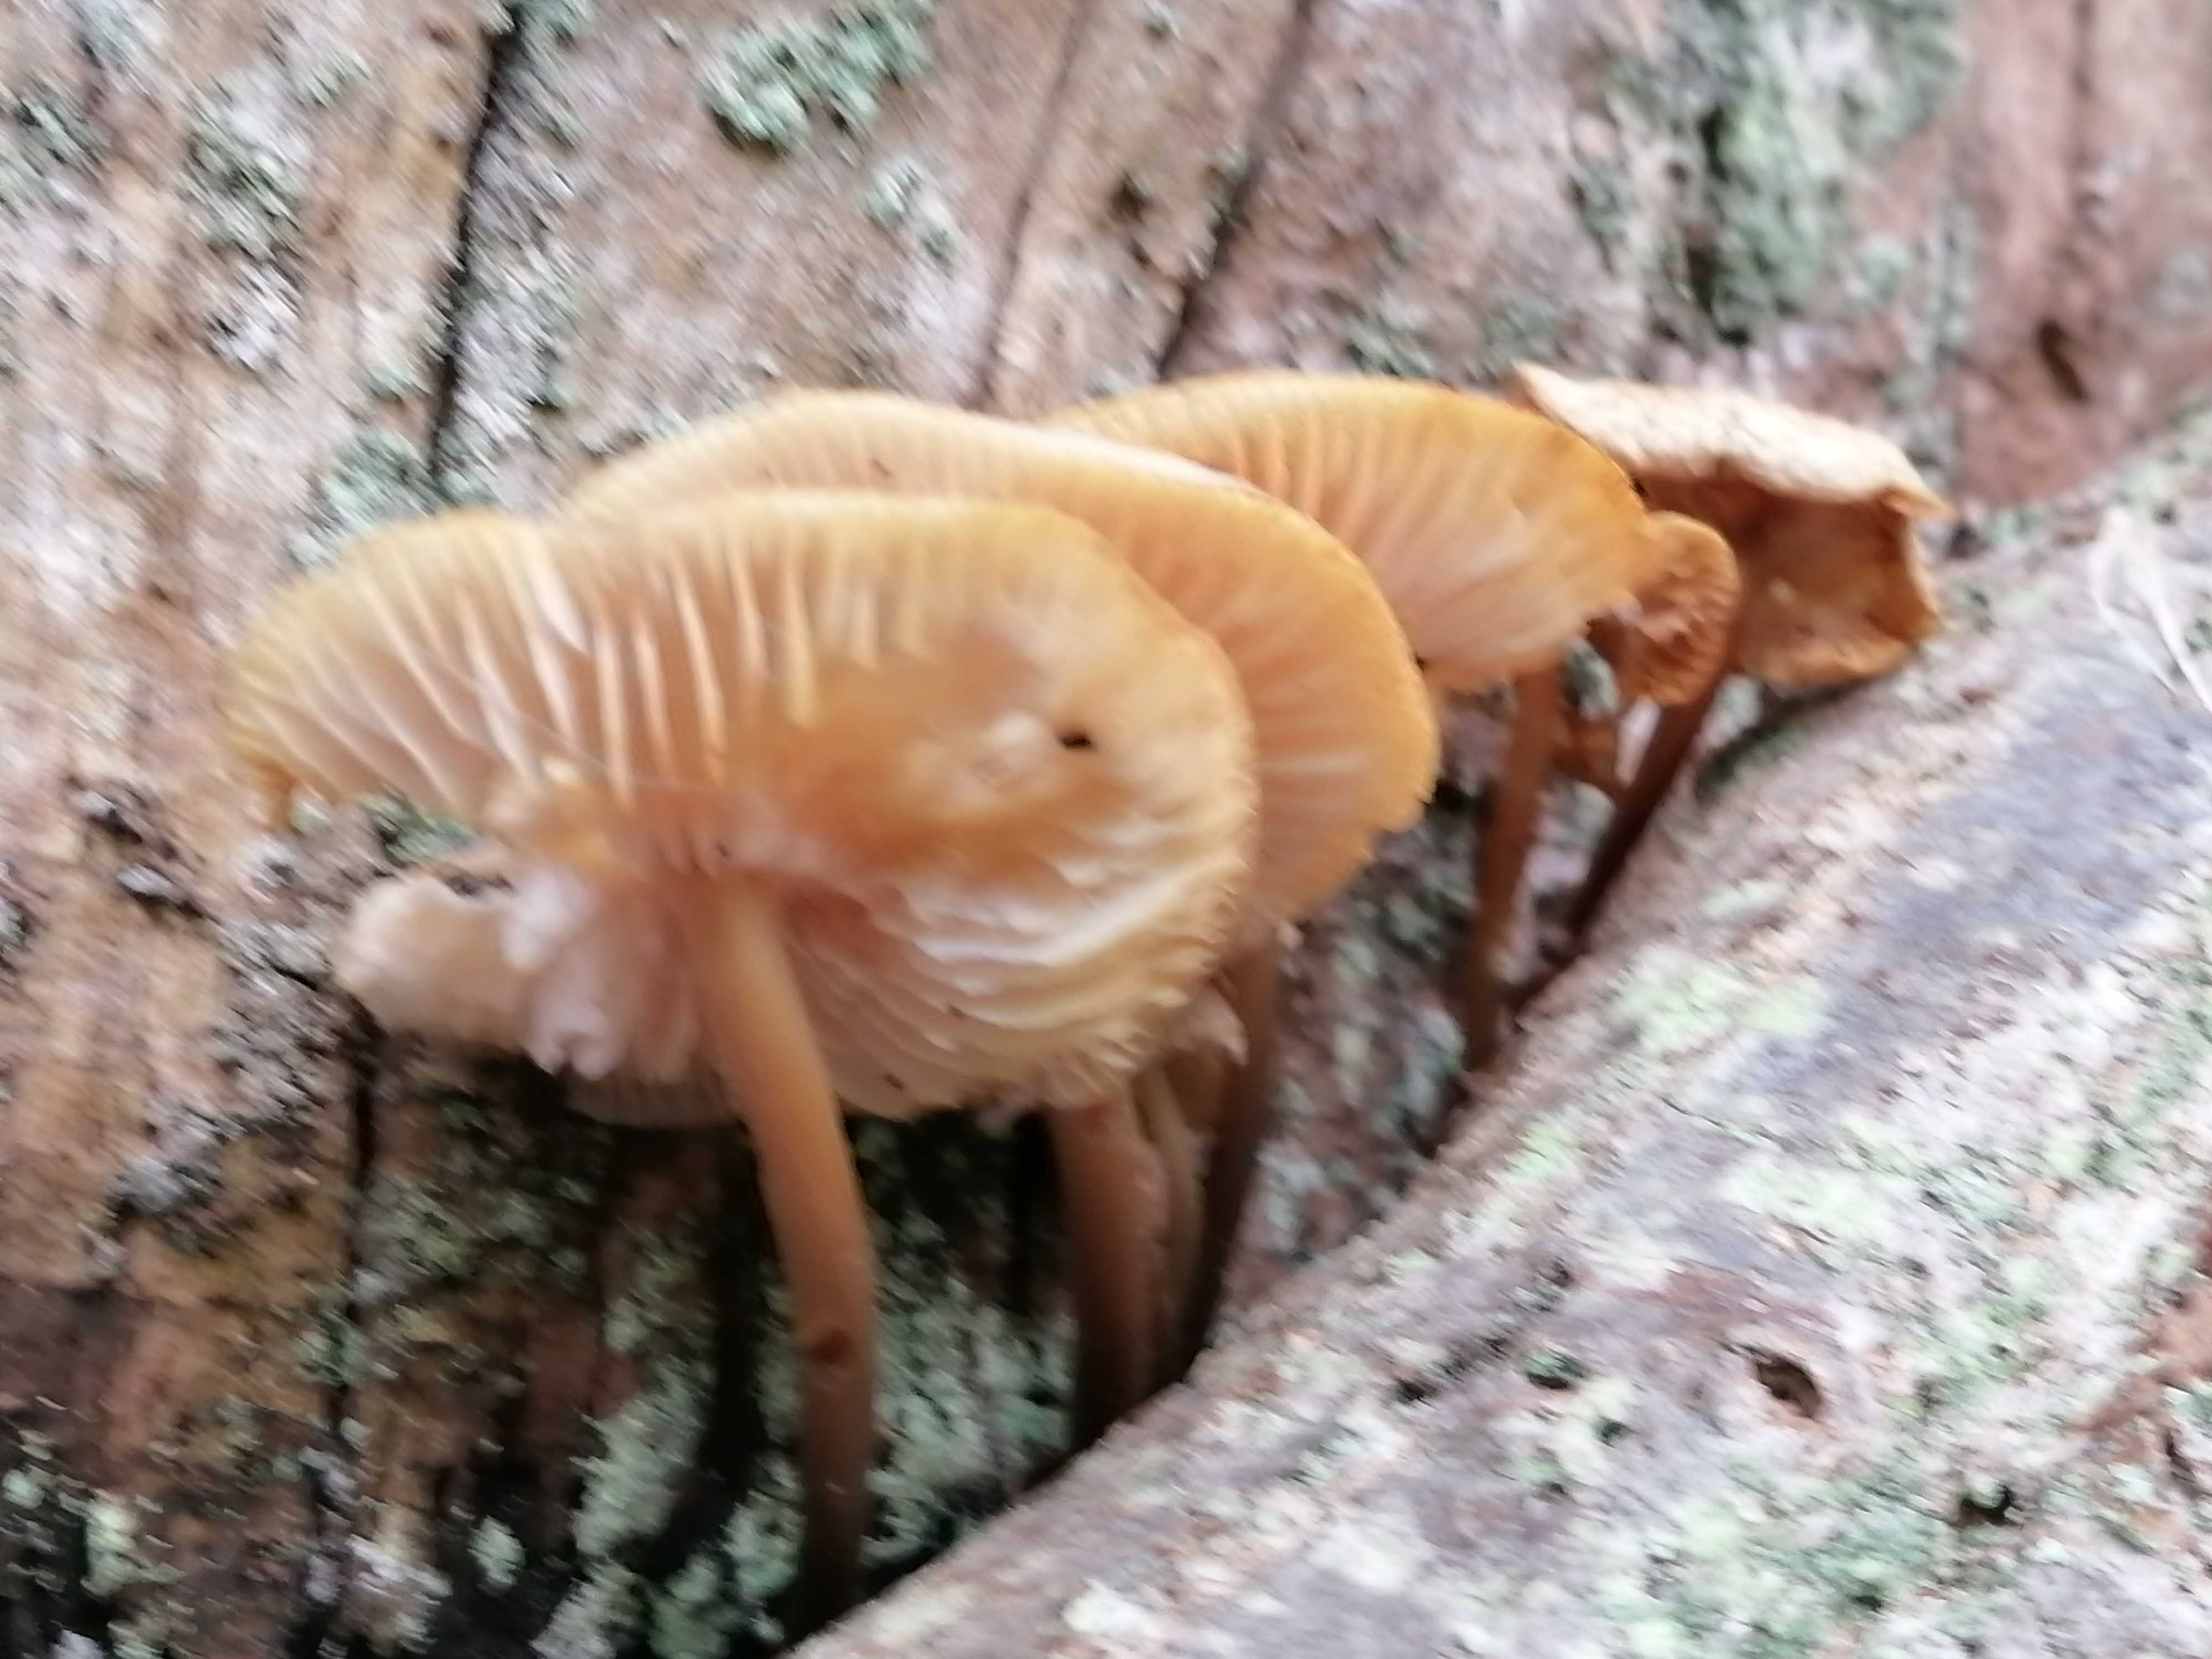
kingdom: Fungi
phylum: Basidiomycota
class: Agaricomycetes
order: Agaricales
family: Physalacriaceae
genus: Flammulina
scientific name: Flammulina velutipes
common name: gul fløjlsfod
